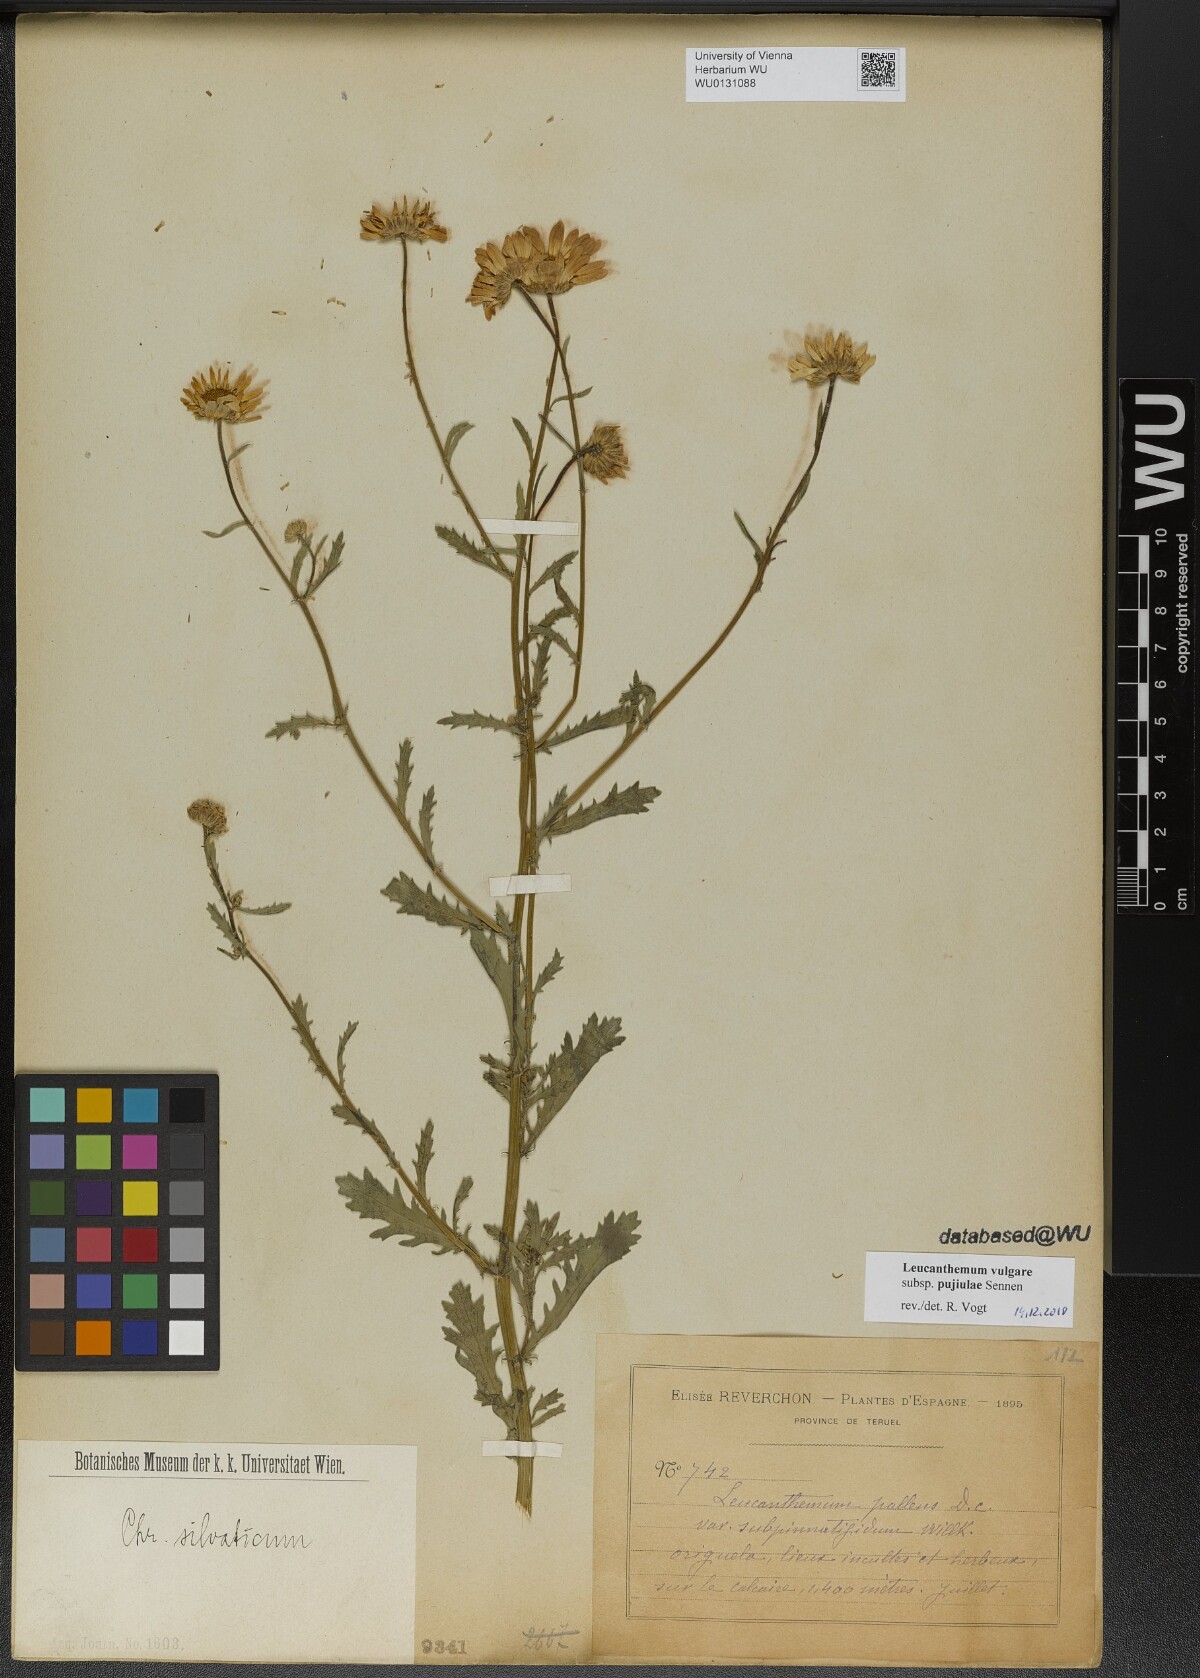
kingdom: Plantae
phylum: Tracheophyta
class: Magnoliopsida
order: Asterales
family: Asteraceae
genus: Leucanthemum
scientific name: Leucanthemum ageratifolium
